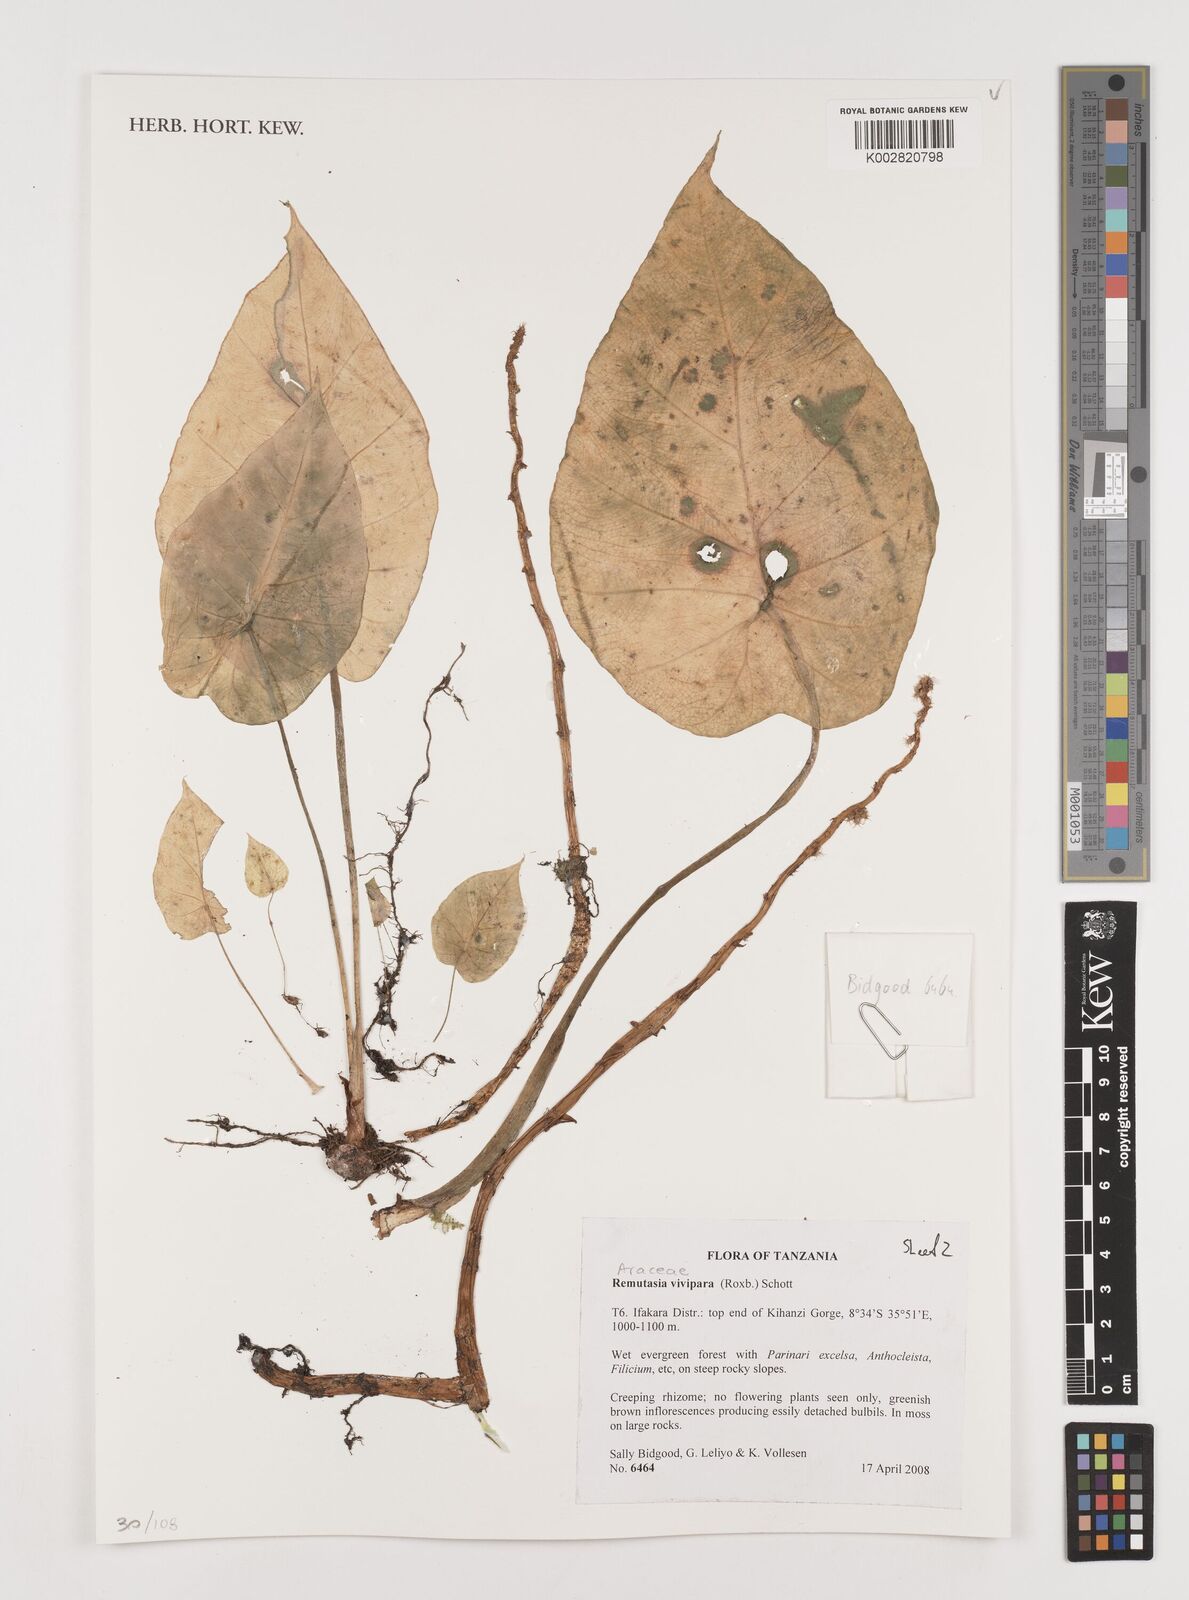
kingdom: Plantae
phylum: Tracheophyta
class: Liliopsida
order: Alismatales
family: Araceae
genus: Remusatia
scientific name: Remusatia vivipara
